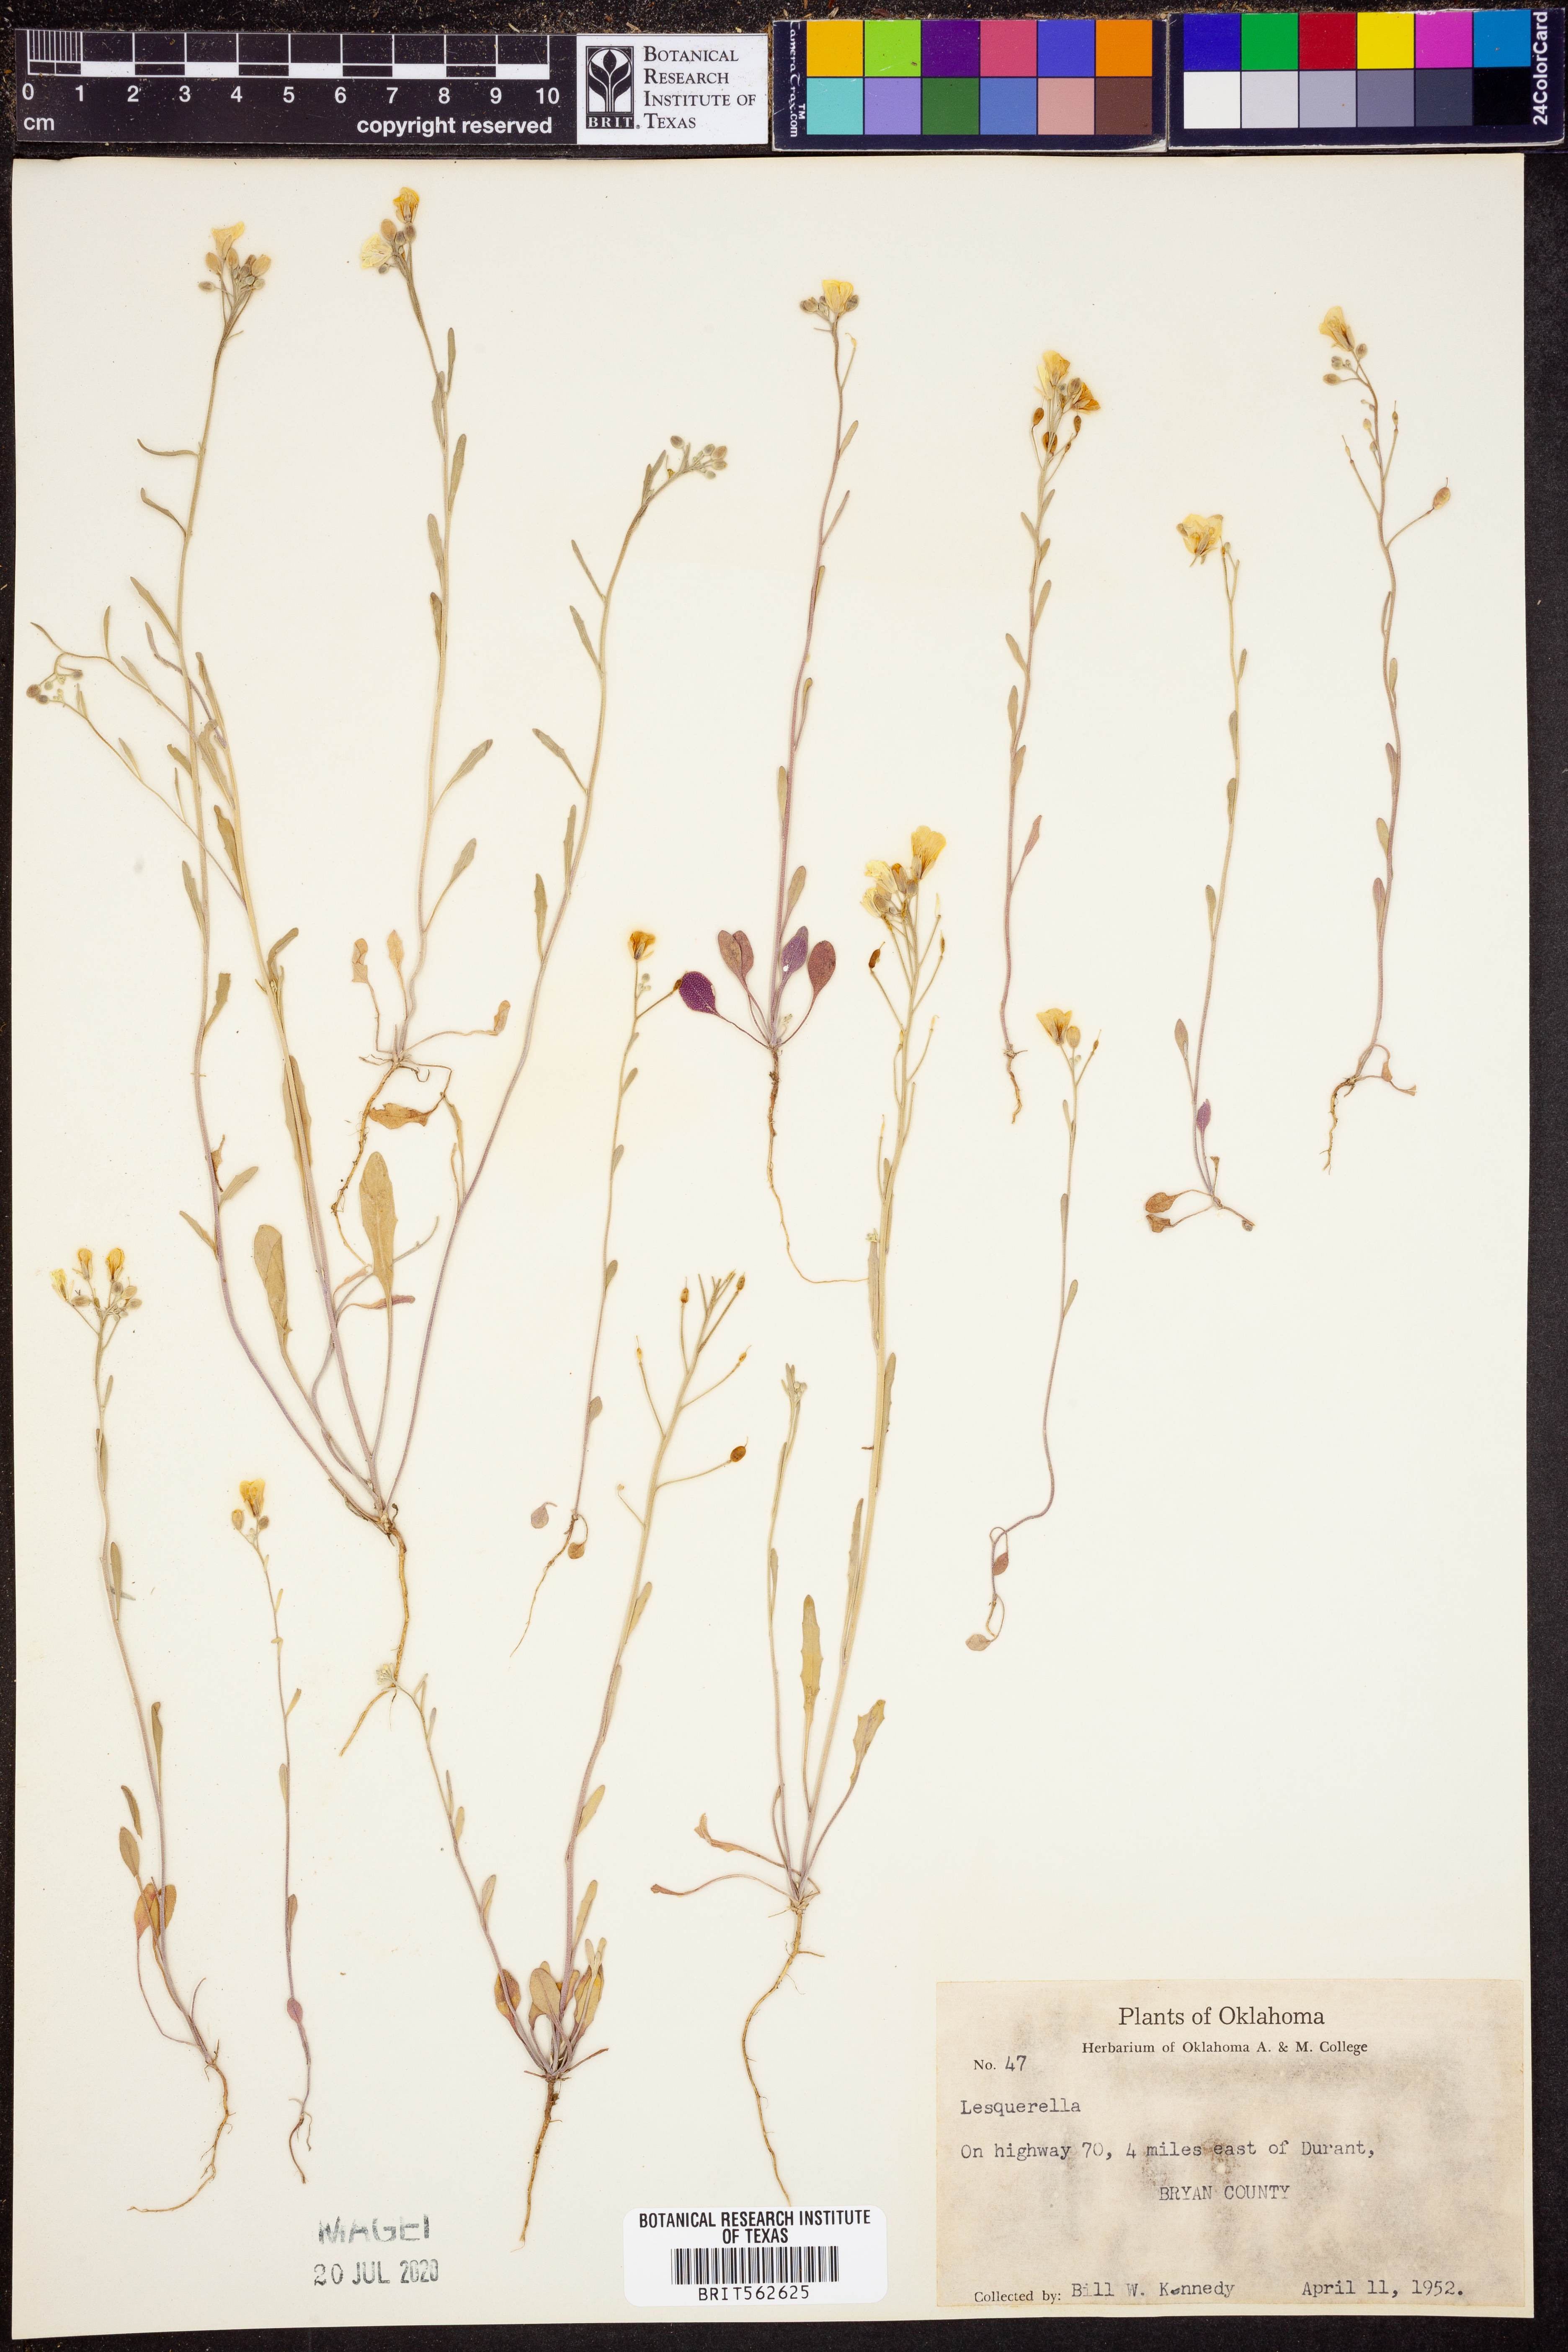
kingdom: Chromista
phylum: Cercozoa
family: Psammonobiotidae
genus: Lesquerella
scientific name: Lesquerella
